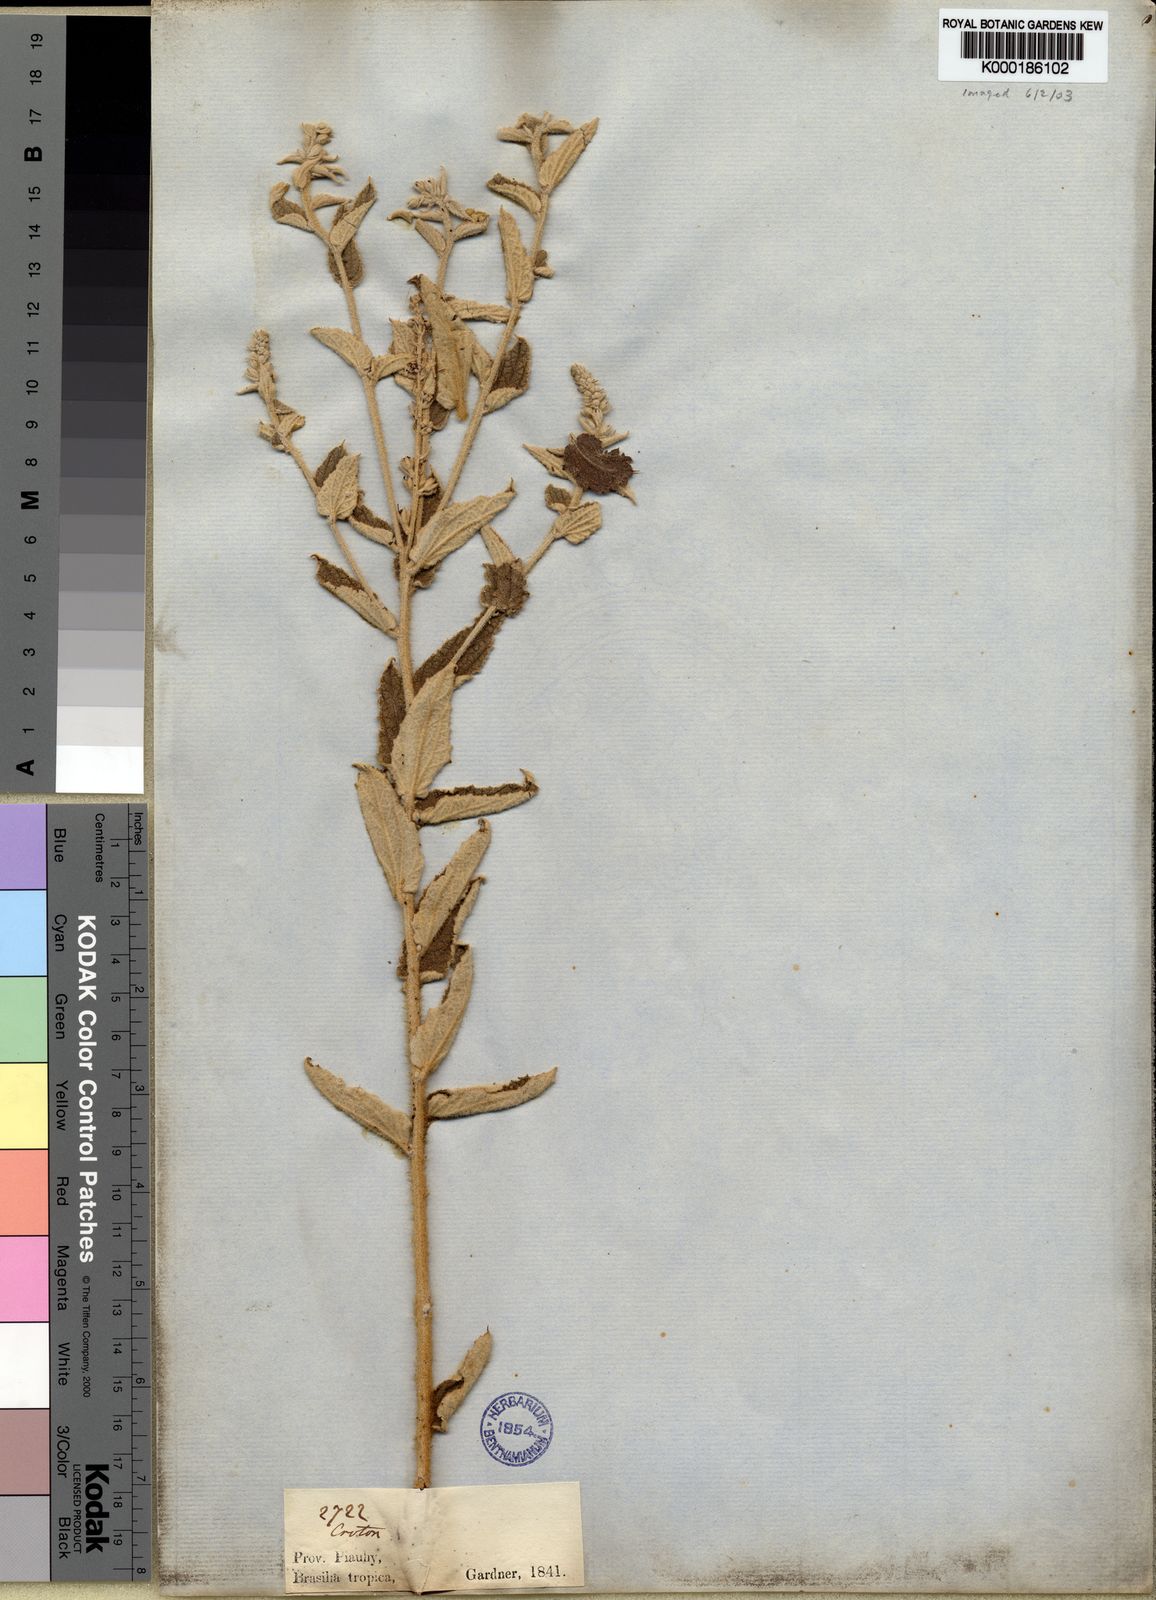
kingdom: Plantae
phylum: Tracheophyta
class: Magnoliopsida
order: Malpighiales
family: Euphorbiaceae
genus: Croton
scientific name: Croton
